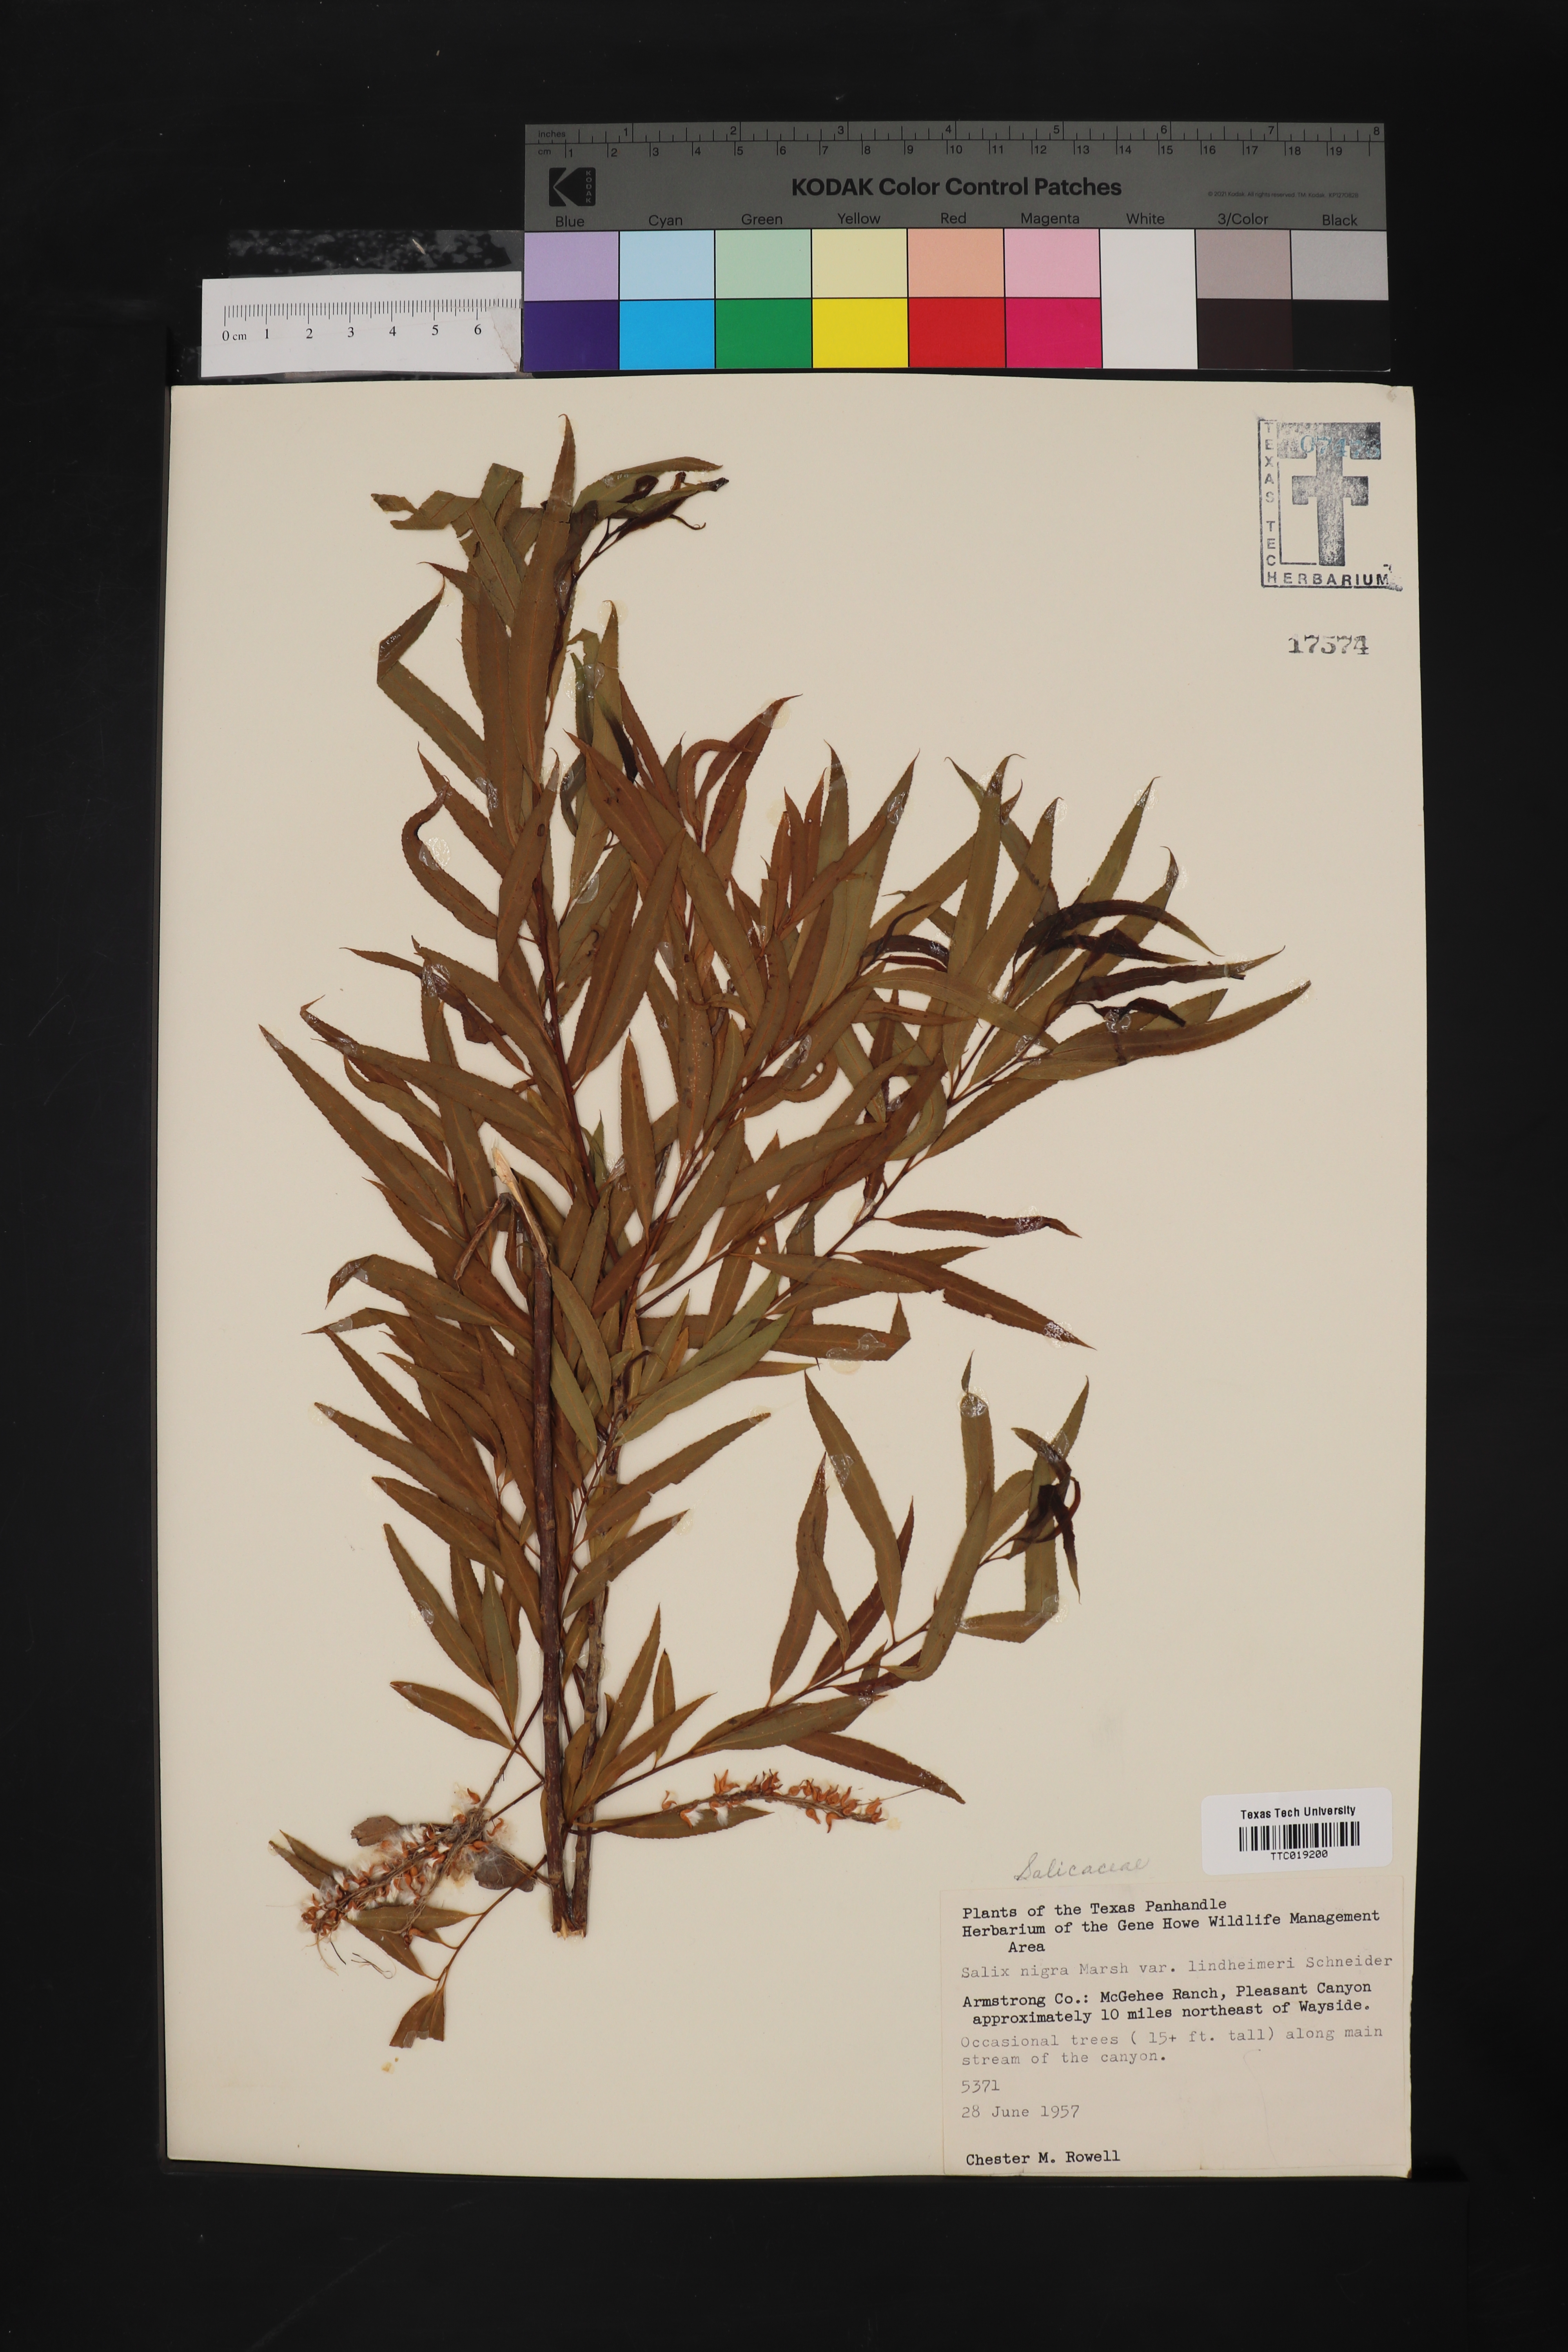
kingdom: Plantae
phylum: Tracheophyta
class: Magnoliopsida
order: Malpighiales
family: Salicaceae
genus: Salix
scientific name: Salix nigra
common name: Black willow
